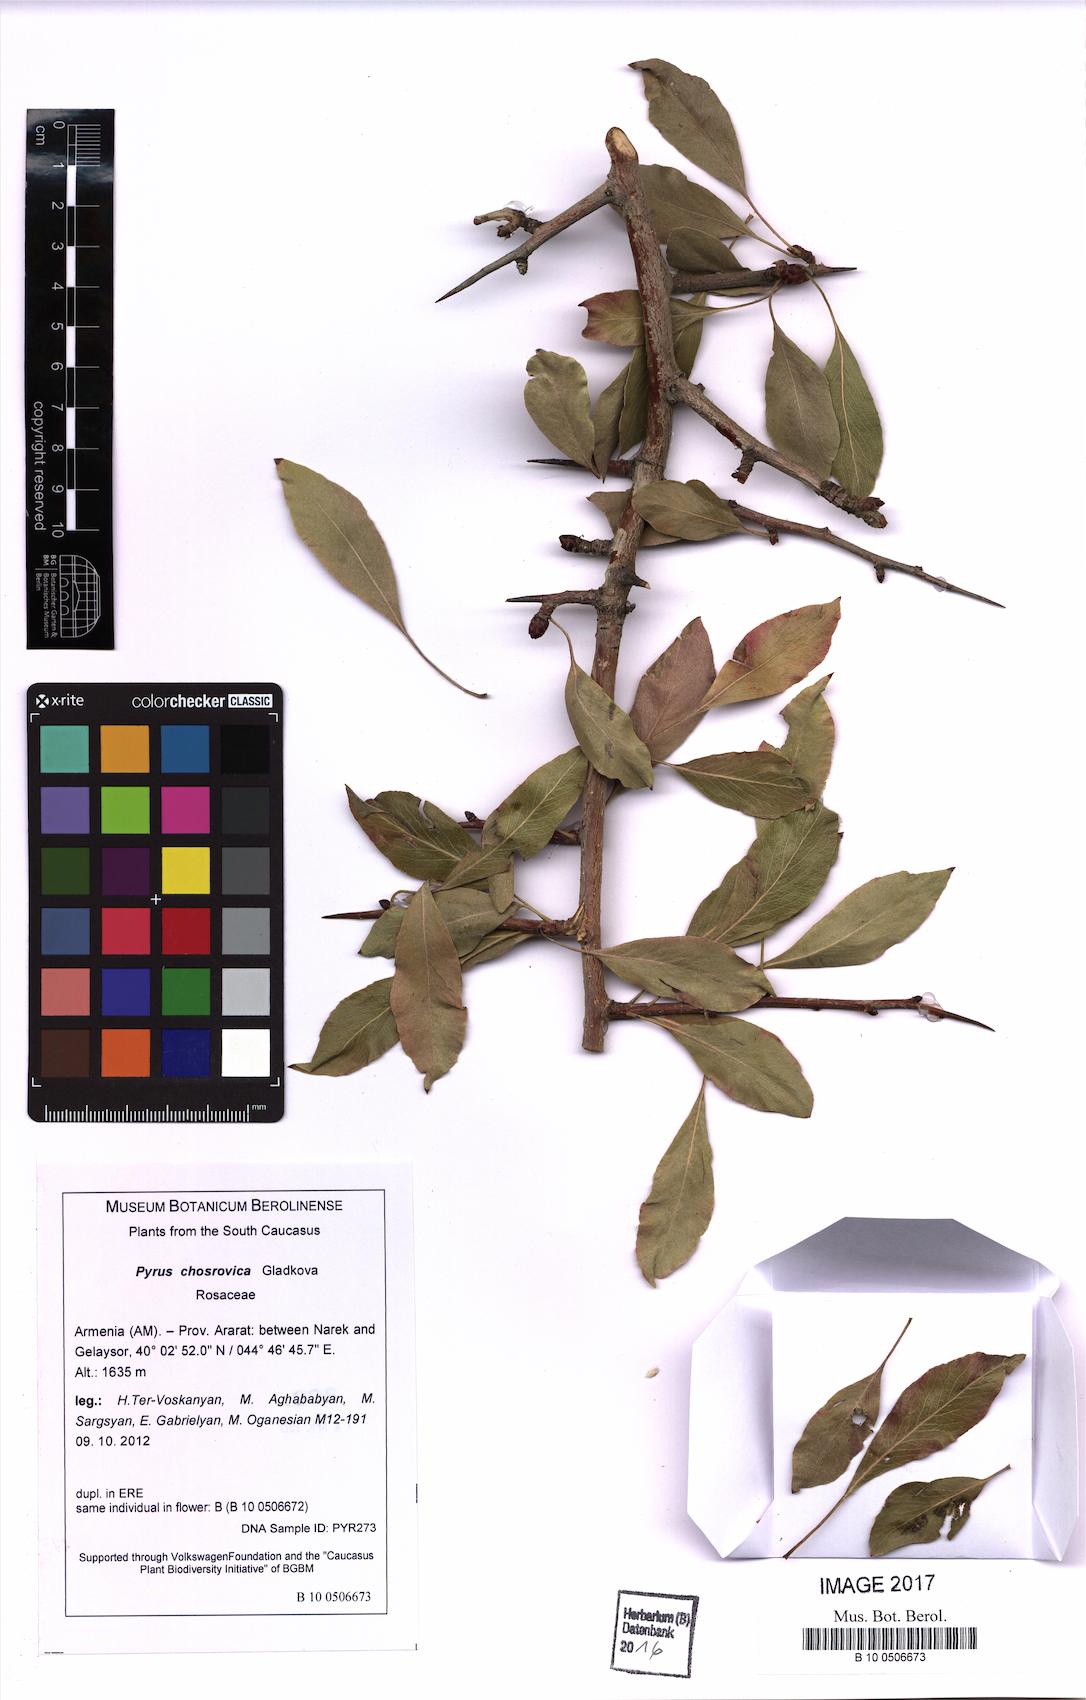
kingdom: Plantae
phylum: Tracheophyta
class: Magnoliopsida
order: Rosales
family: Rosaceae
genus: Pyrus
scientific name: Pyrus chosrovica
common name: Khosrovian pear
